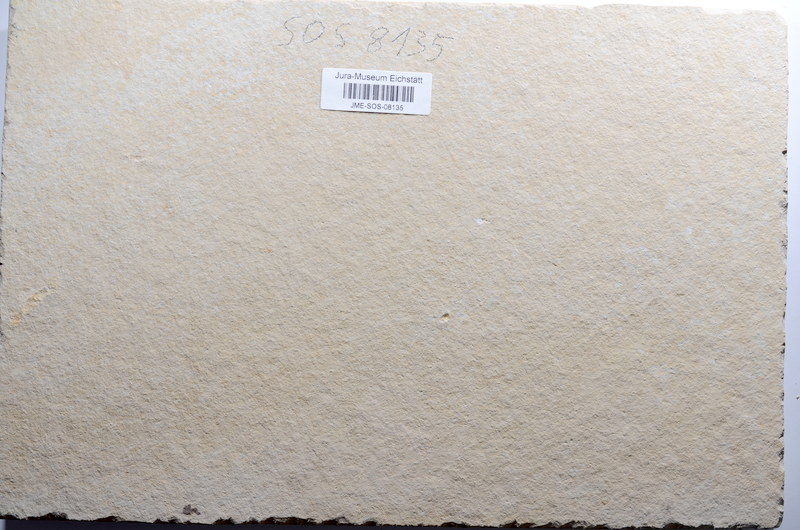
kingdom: Animalia
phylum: Chordata
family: Ascalaboidae
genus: Tharsis
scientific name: Tharsis dubius
